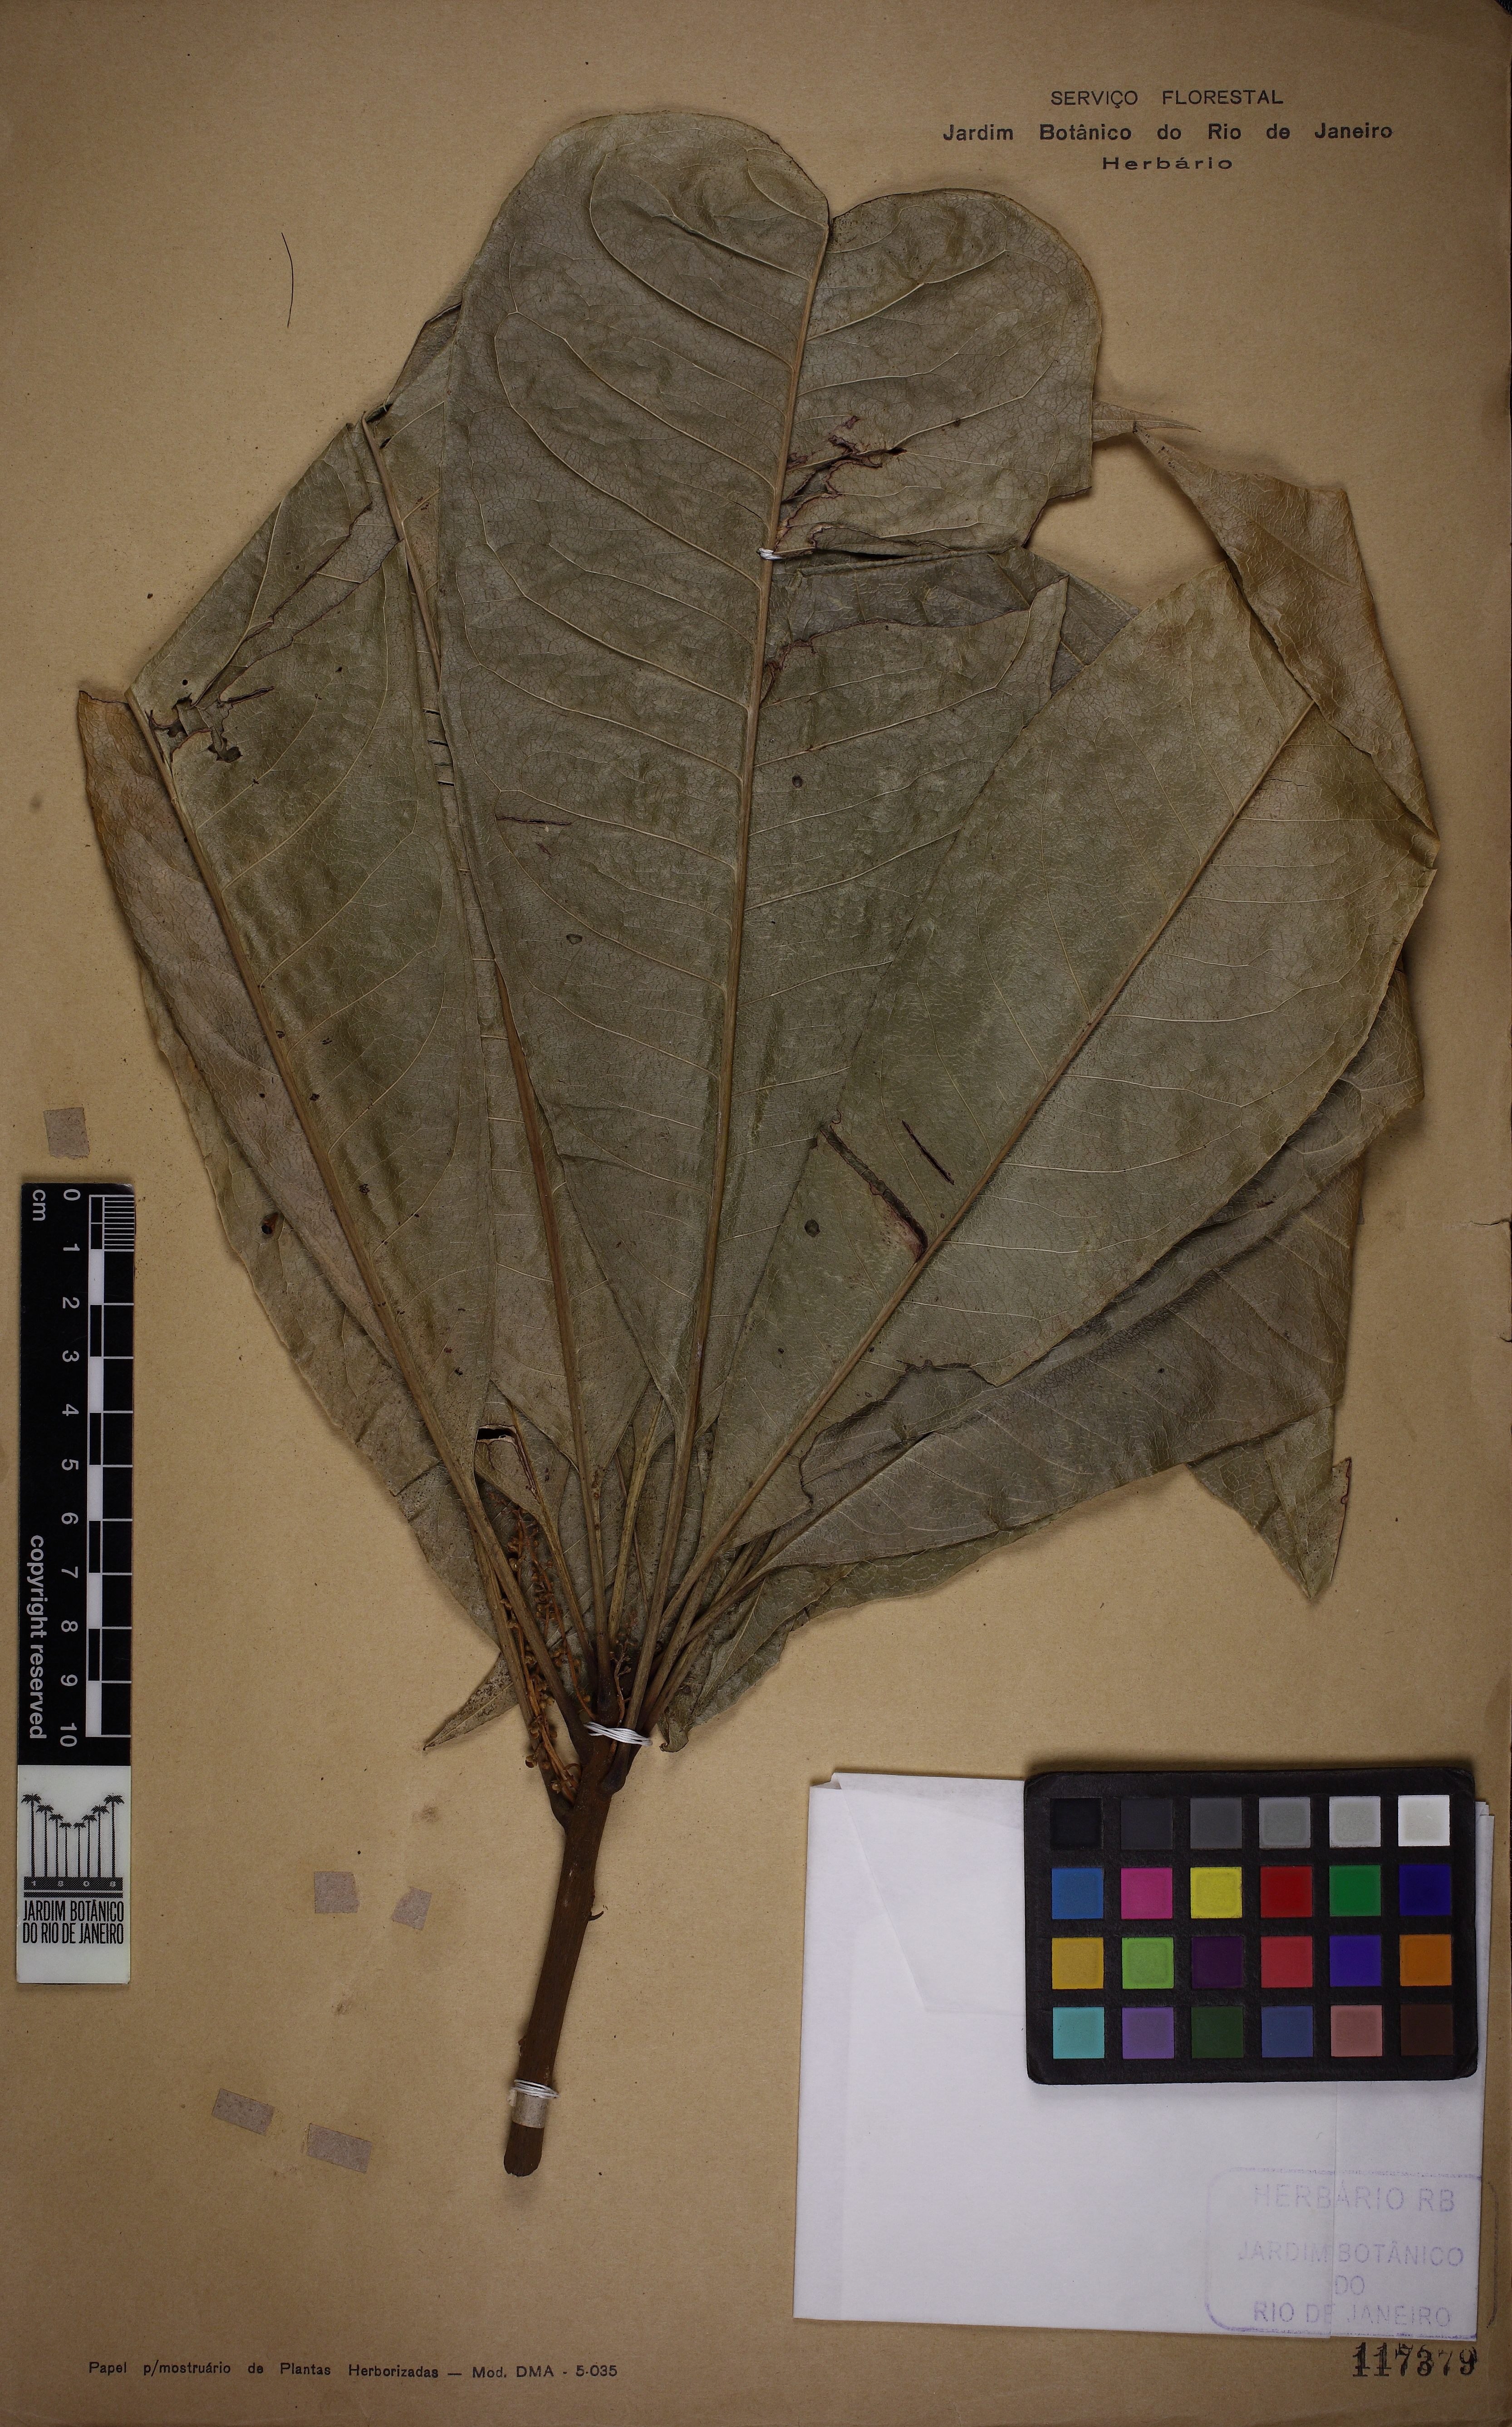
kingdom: Plantae
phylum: Tracheophyta
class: Magnoliopsida
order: Ericales
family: Primulaceae
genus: Clavija
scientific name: Clavija weberbaueri
